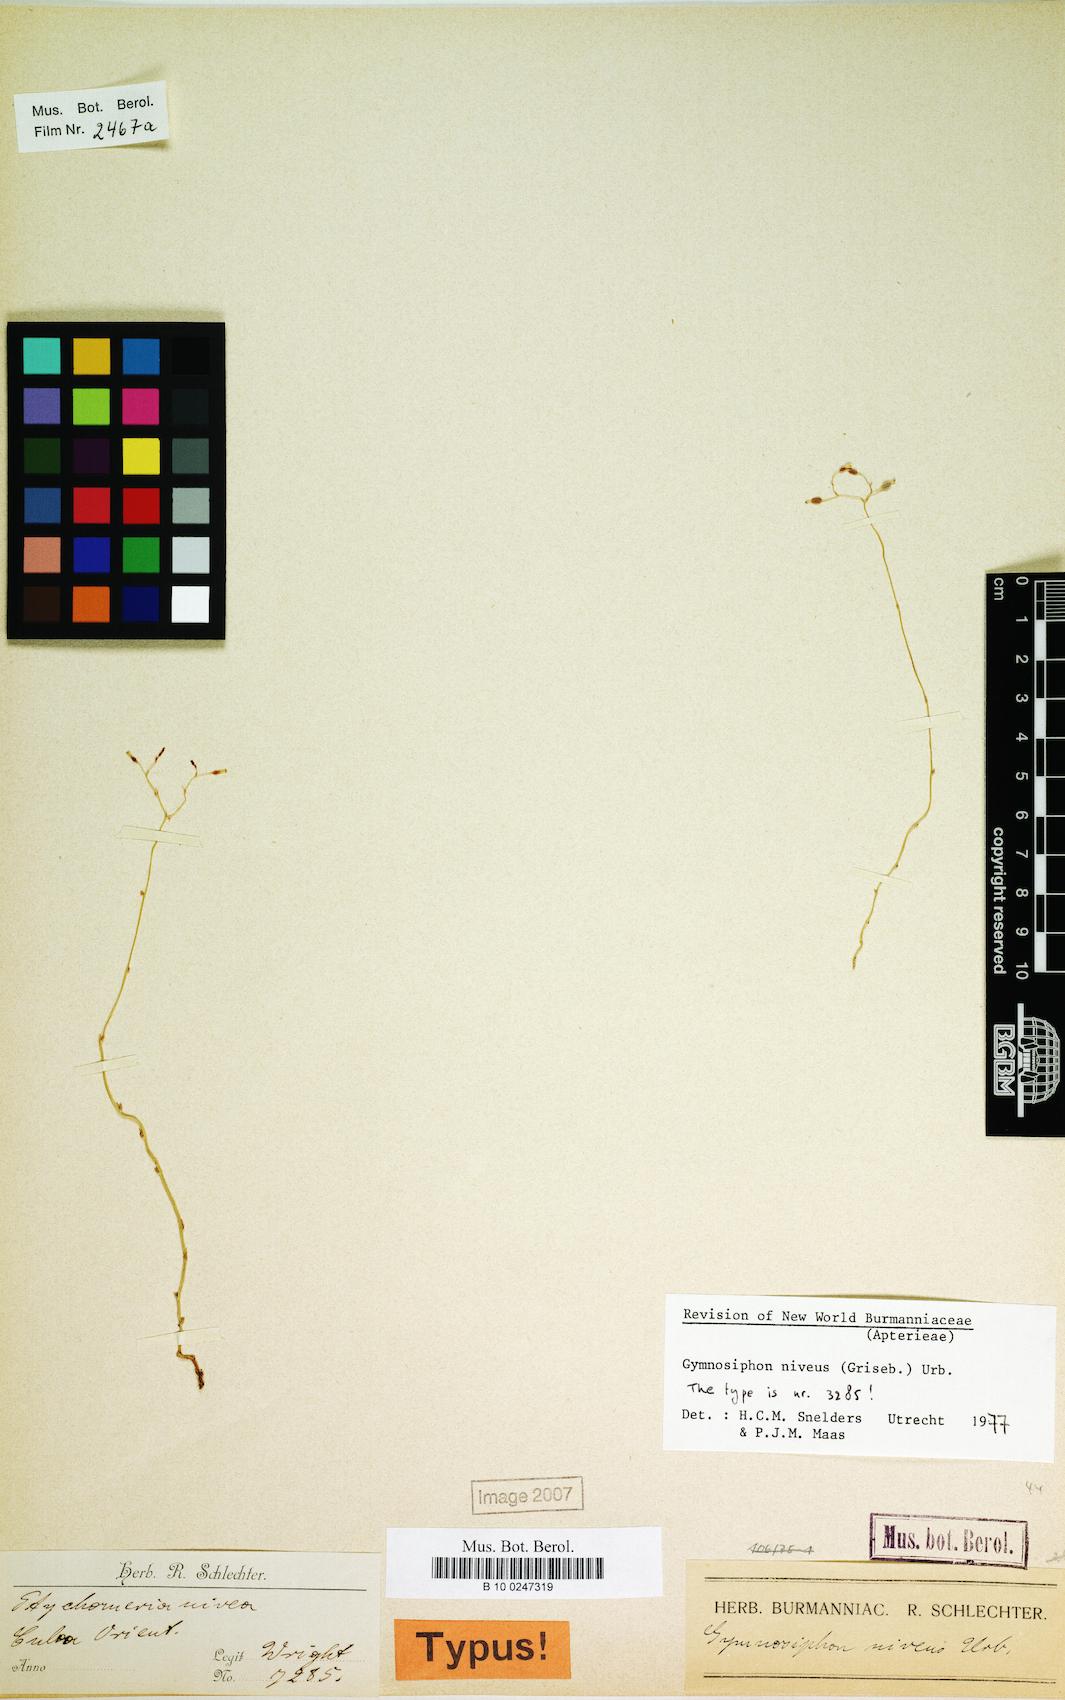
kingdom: Plantae
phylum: Tracheophyta
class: Liliopsida
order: Dioscoreales
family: Burmanniaceae
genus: Gymnosiphon
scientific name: Gymnosiphon niveus
